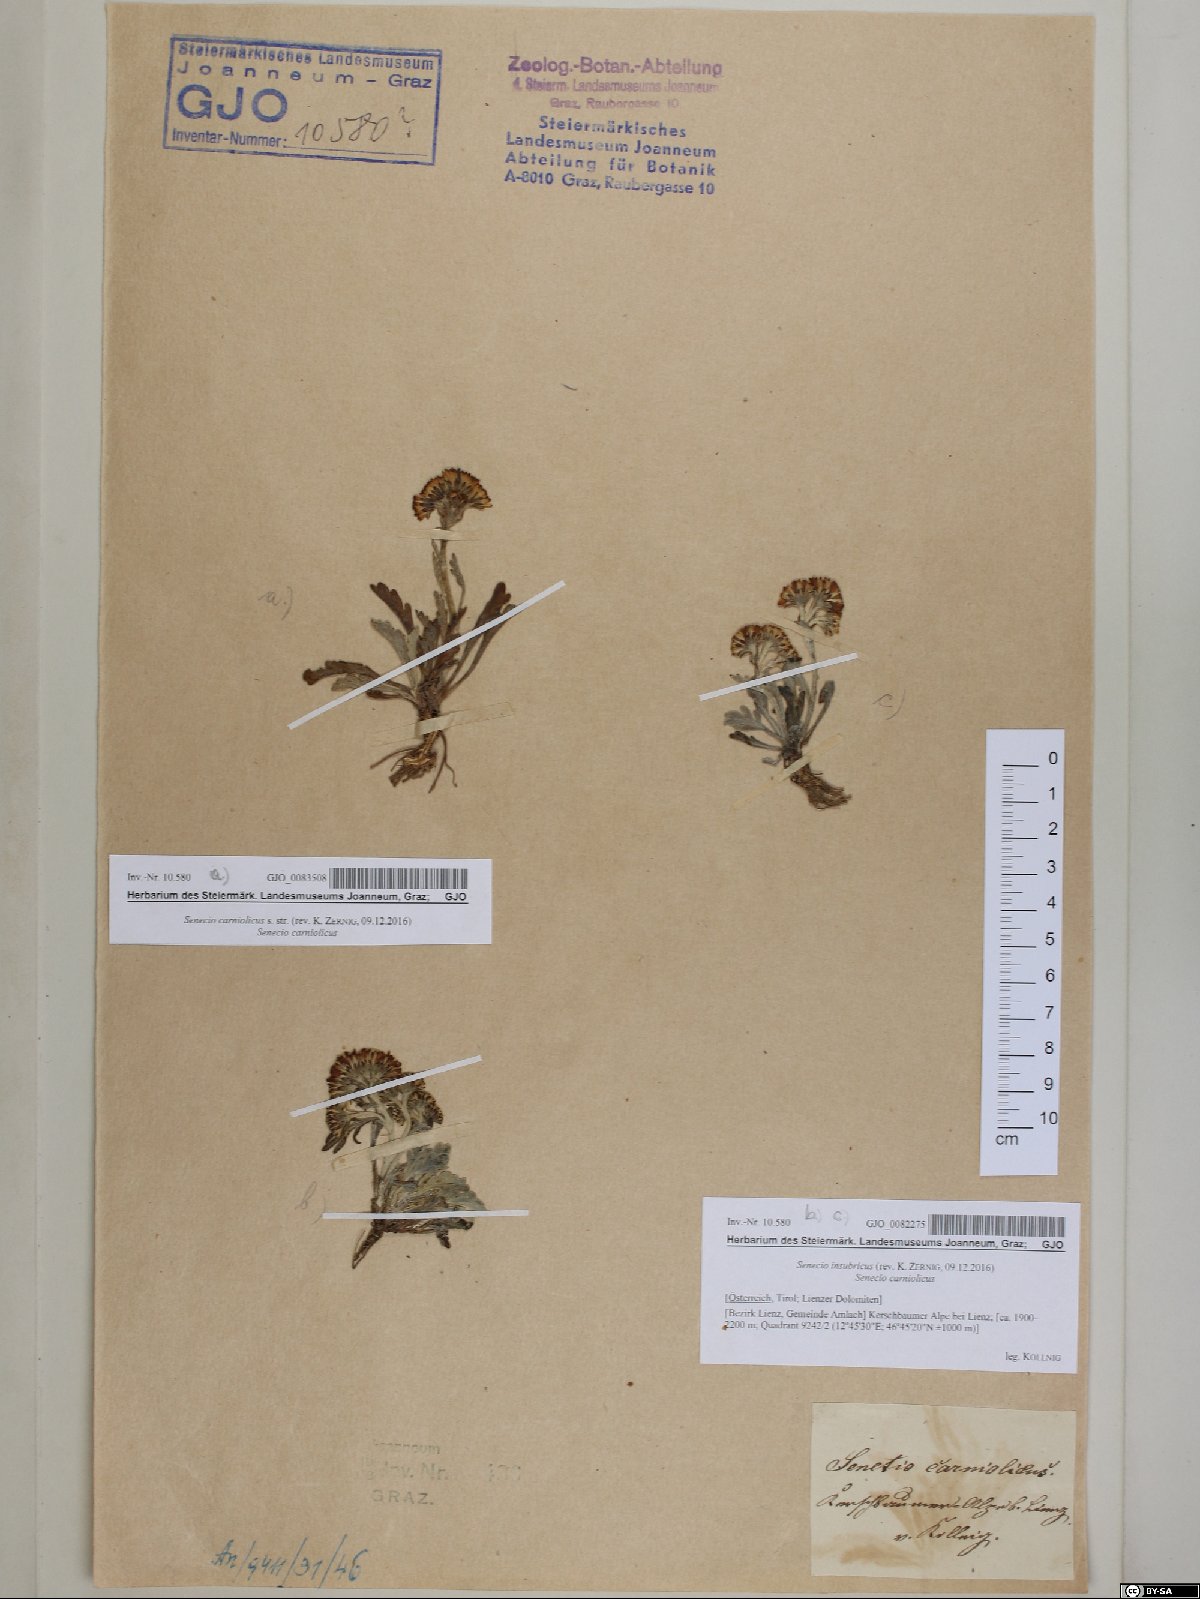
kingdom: Plantae
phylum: Tracheophyta
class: Magnoliopsida
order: Asterales
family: Asteraceae
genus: Jacobaea
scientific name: Jacobaea carniolica
